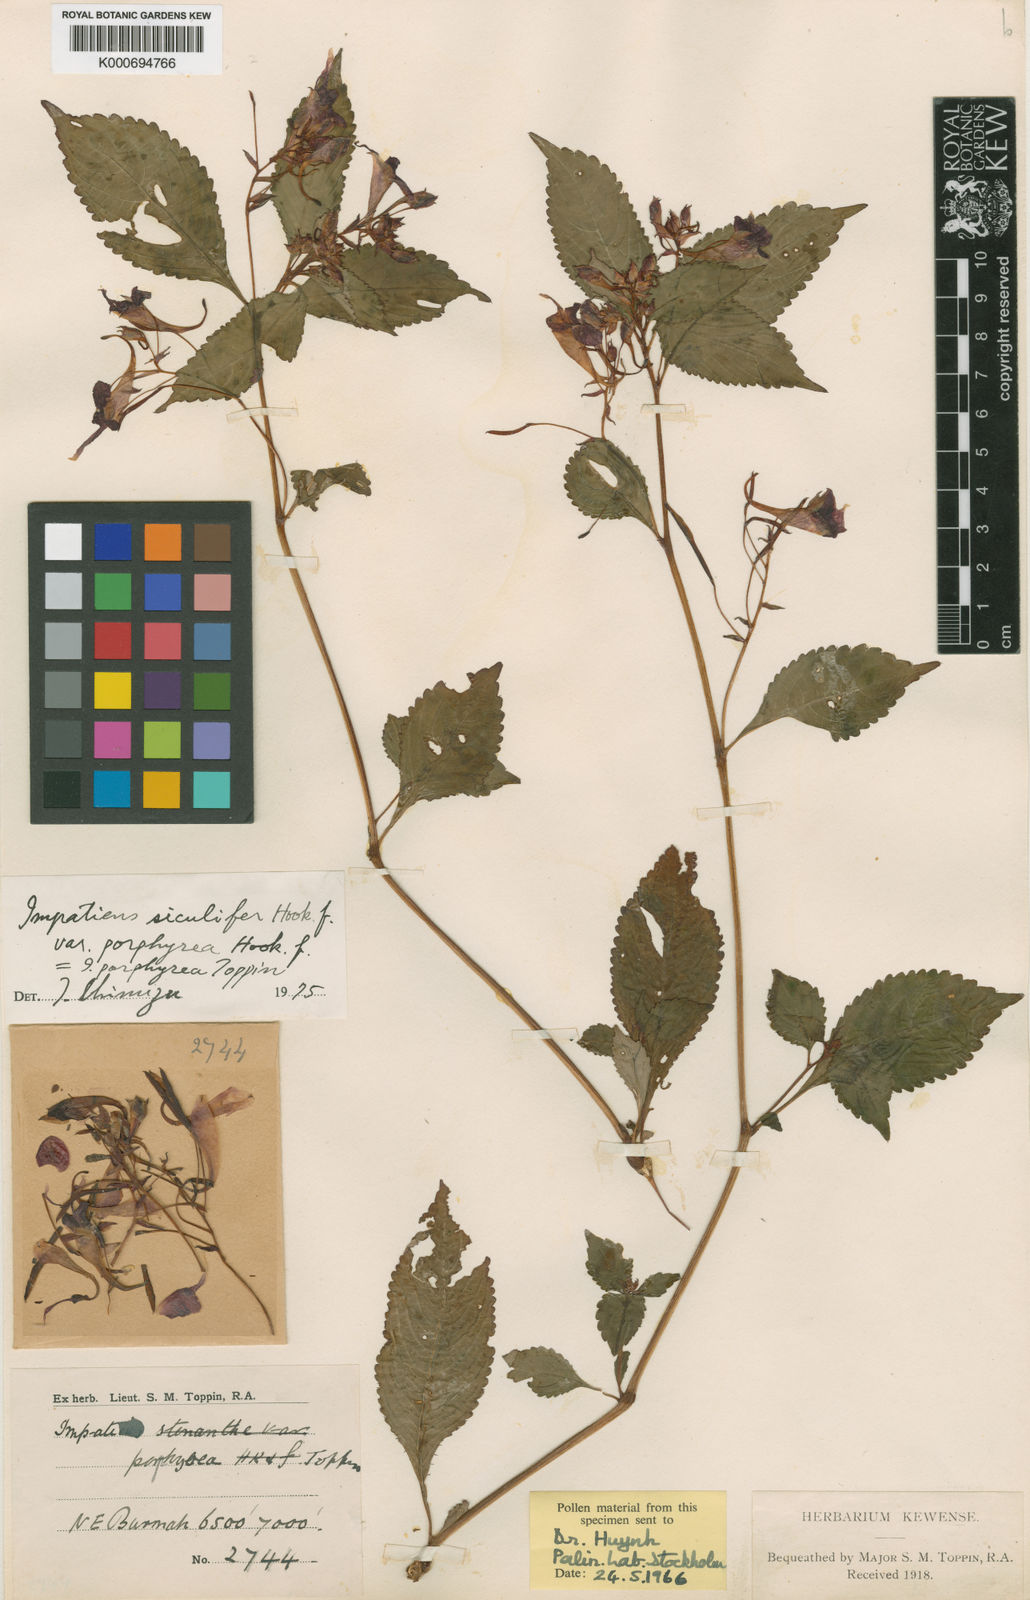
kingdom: Plantae
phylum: Tracheophyta
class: Magnoliopsida
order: Ericales
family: Balsaminaceae
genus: Impatiens
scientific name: Impatiens siculifera
